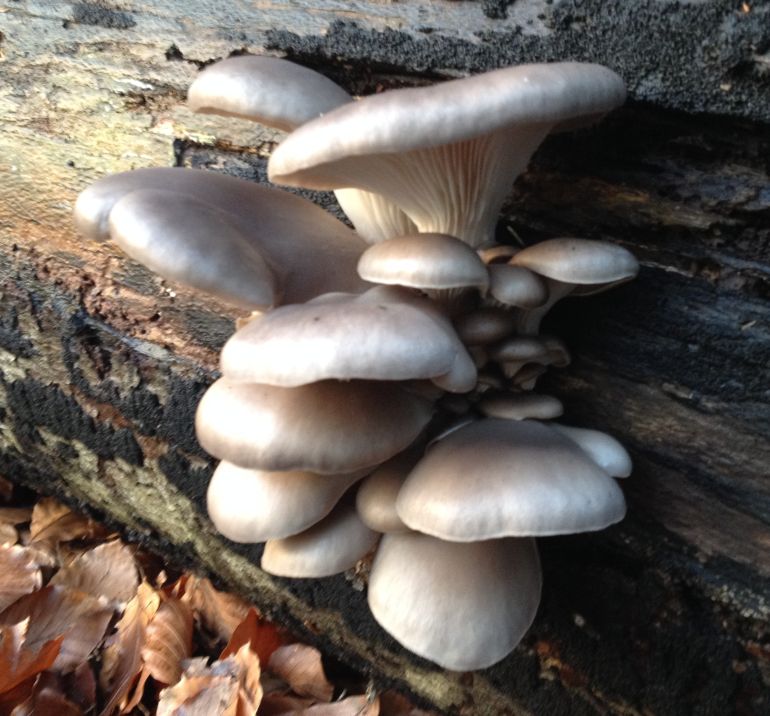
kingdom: Fungi
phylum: Basidiomycota
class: Agaricomycetes
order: Agaricales
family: Pleurotaceae
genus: Pleurotus
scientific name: Pleurotus ostreatus
